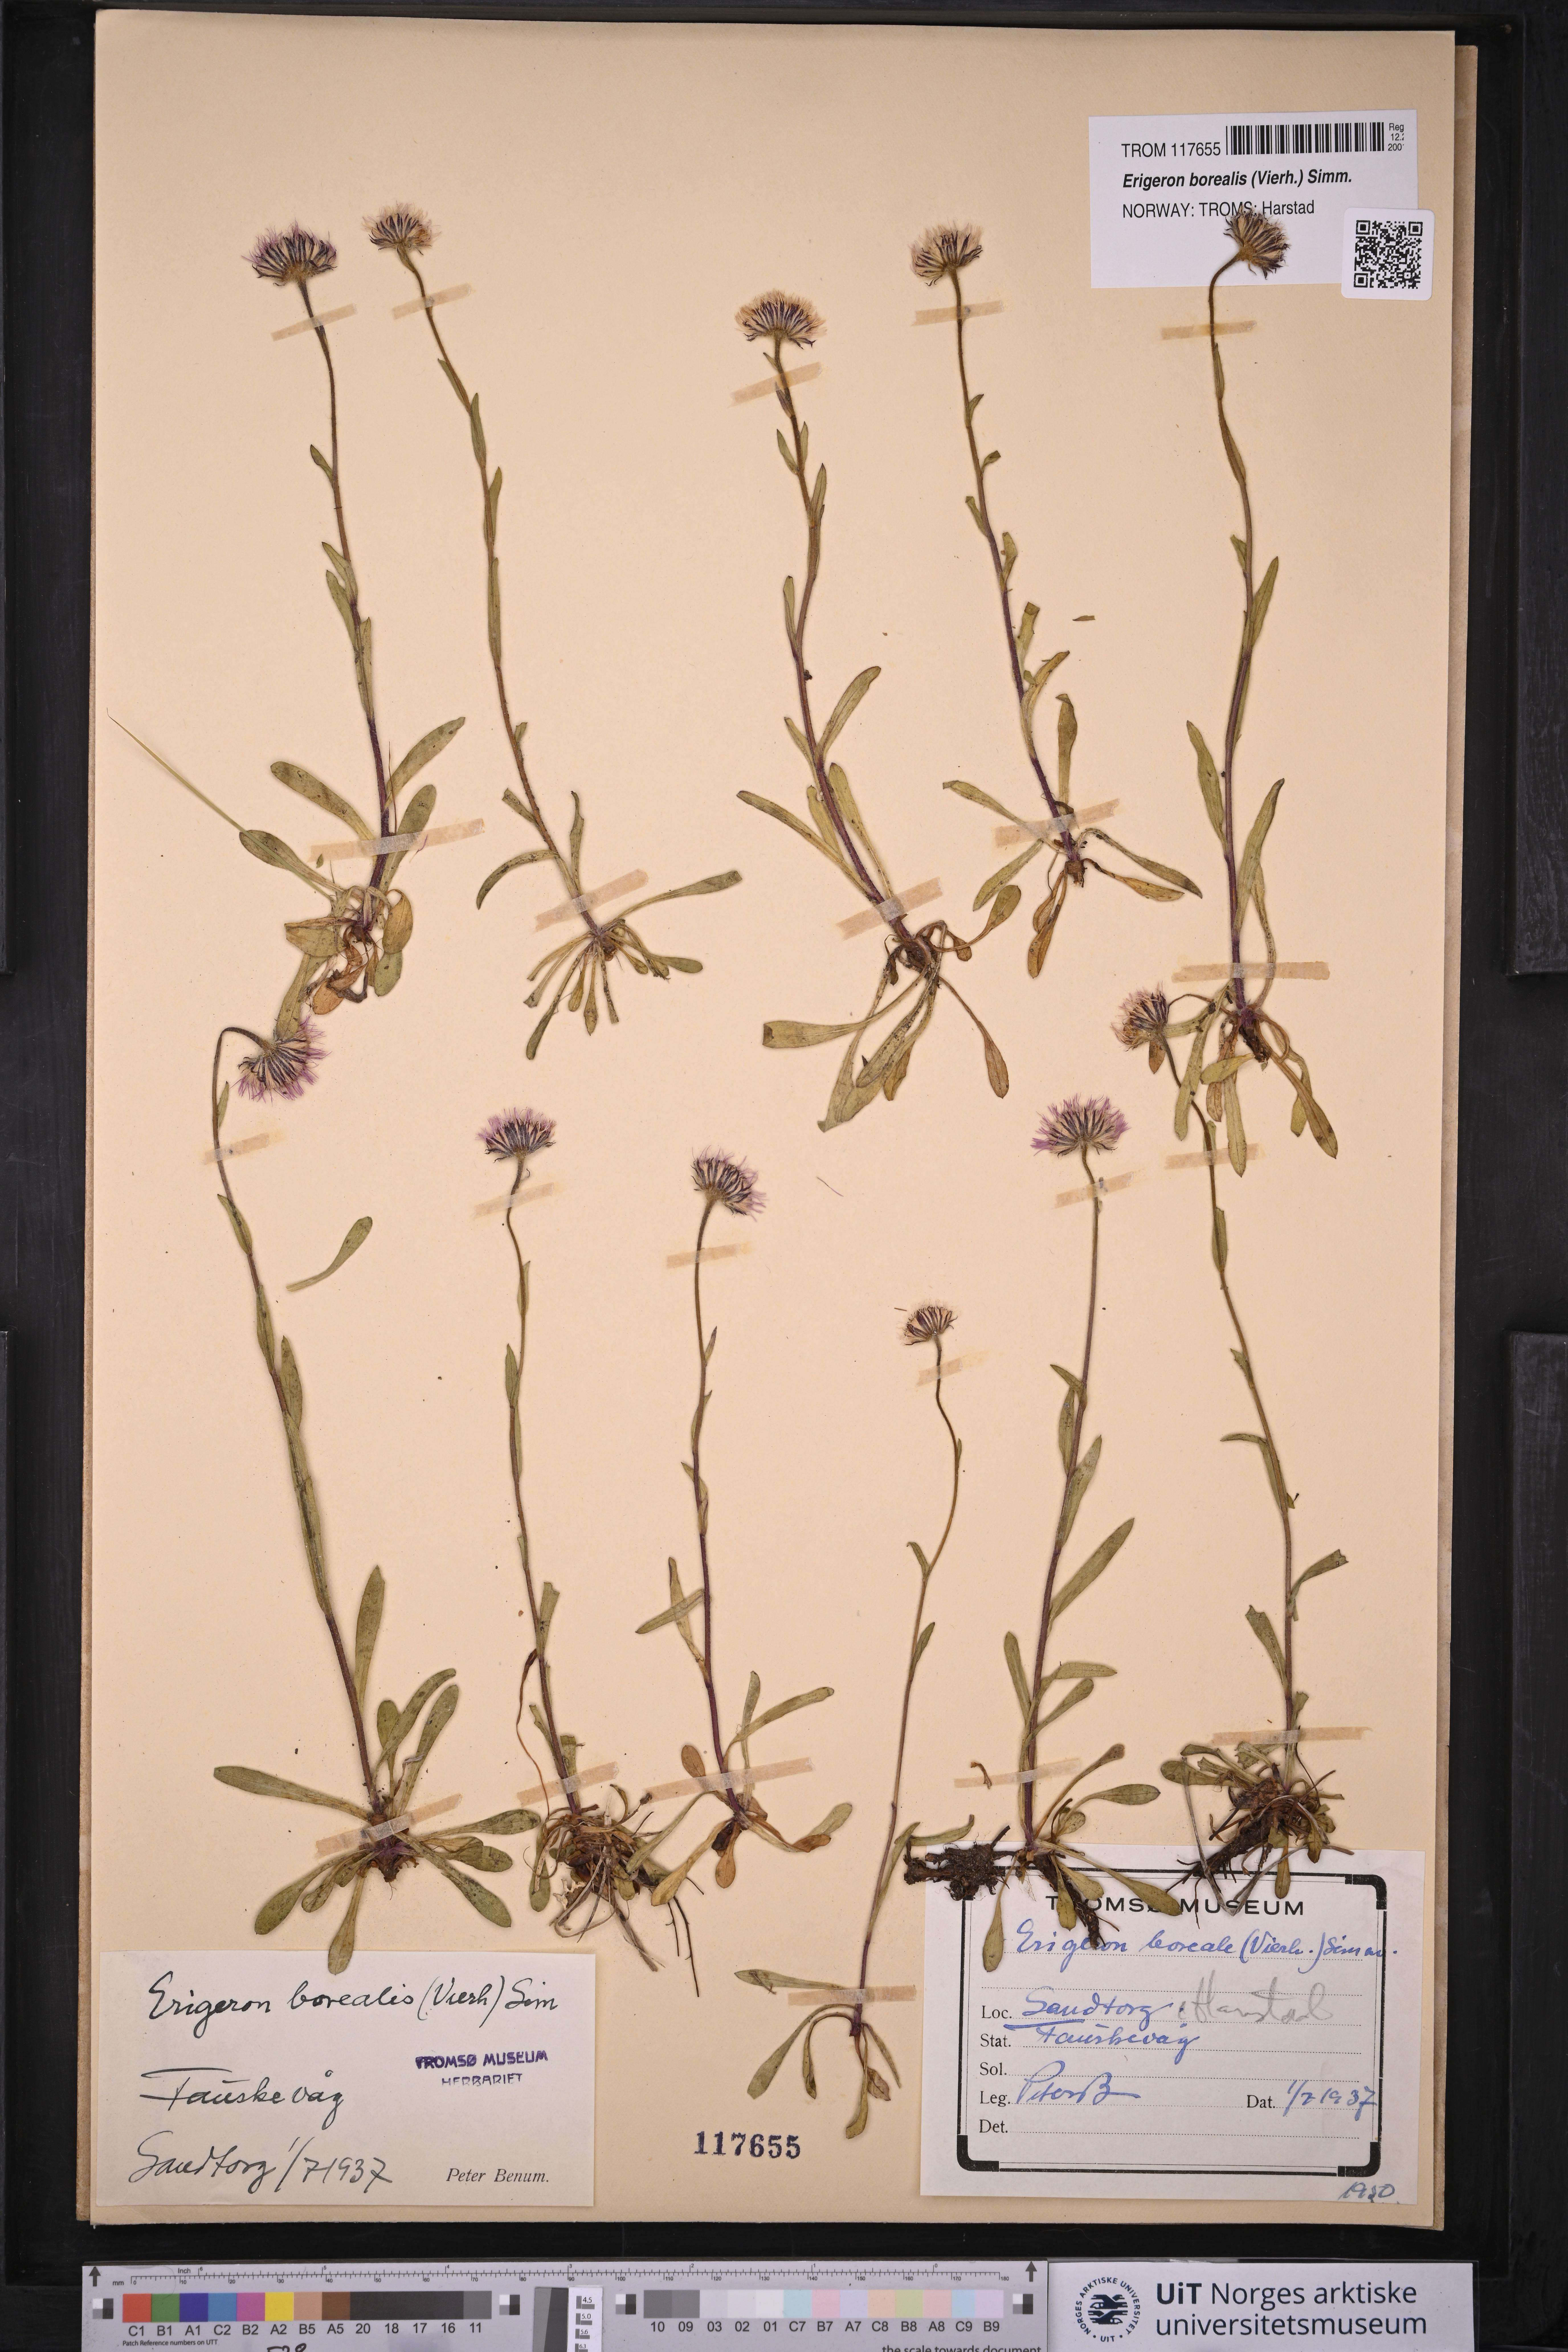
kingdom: Plantae
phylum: Tracheophyta
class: Magnoliopsida
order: Asterales
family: Asteraceae
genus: Erigeron
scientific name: Erigeron borealis
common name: Alpine fleabane
